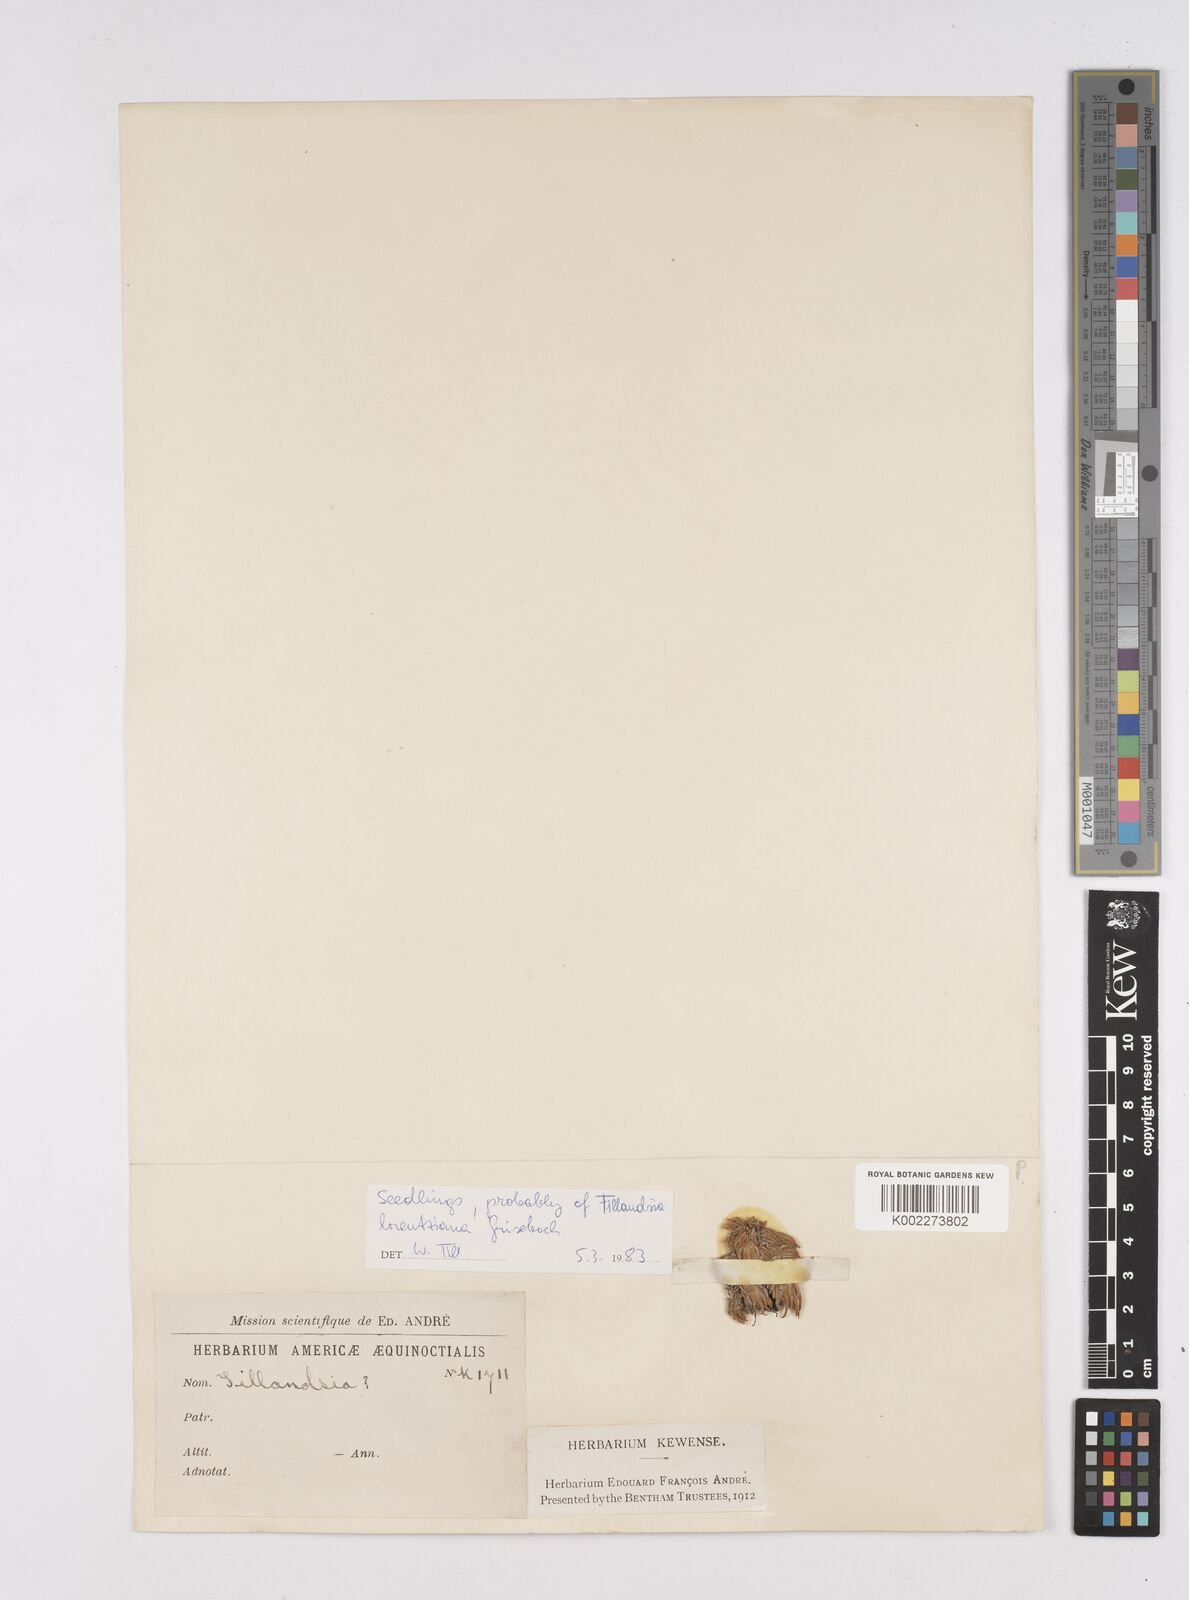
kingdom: Plantae
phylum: Tracheophyta
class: Liliopsida
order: Poales
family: Bromeliaceae
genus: Tillandsia
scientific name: Tillandsia
